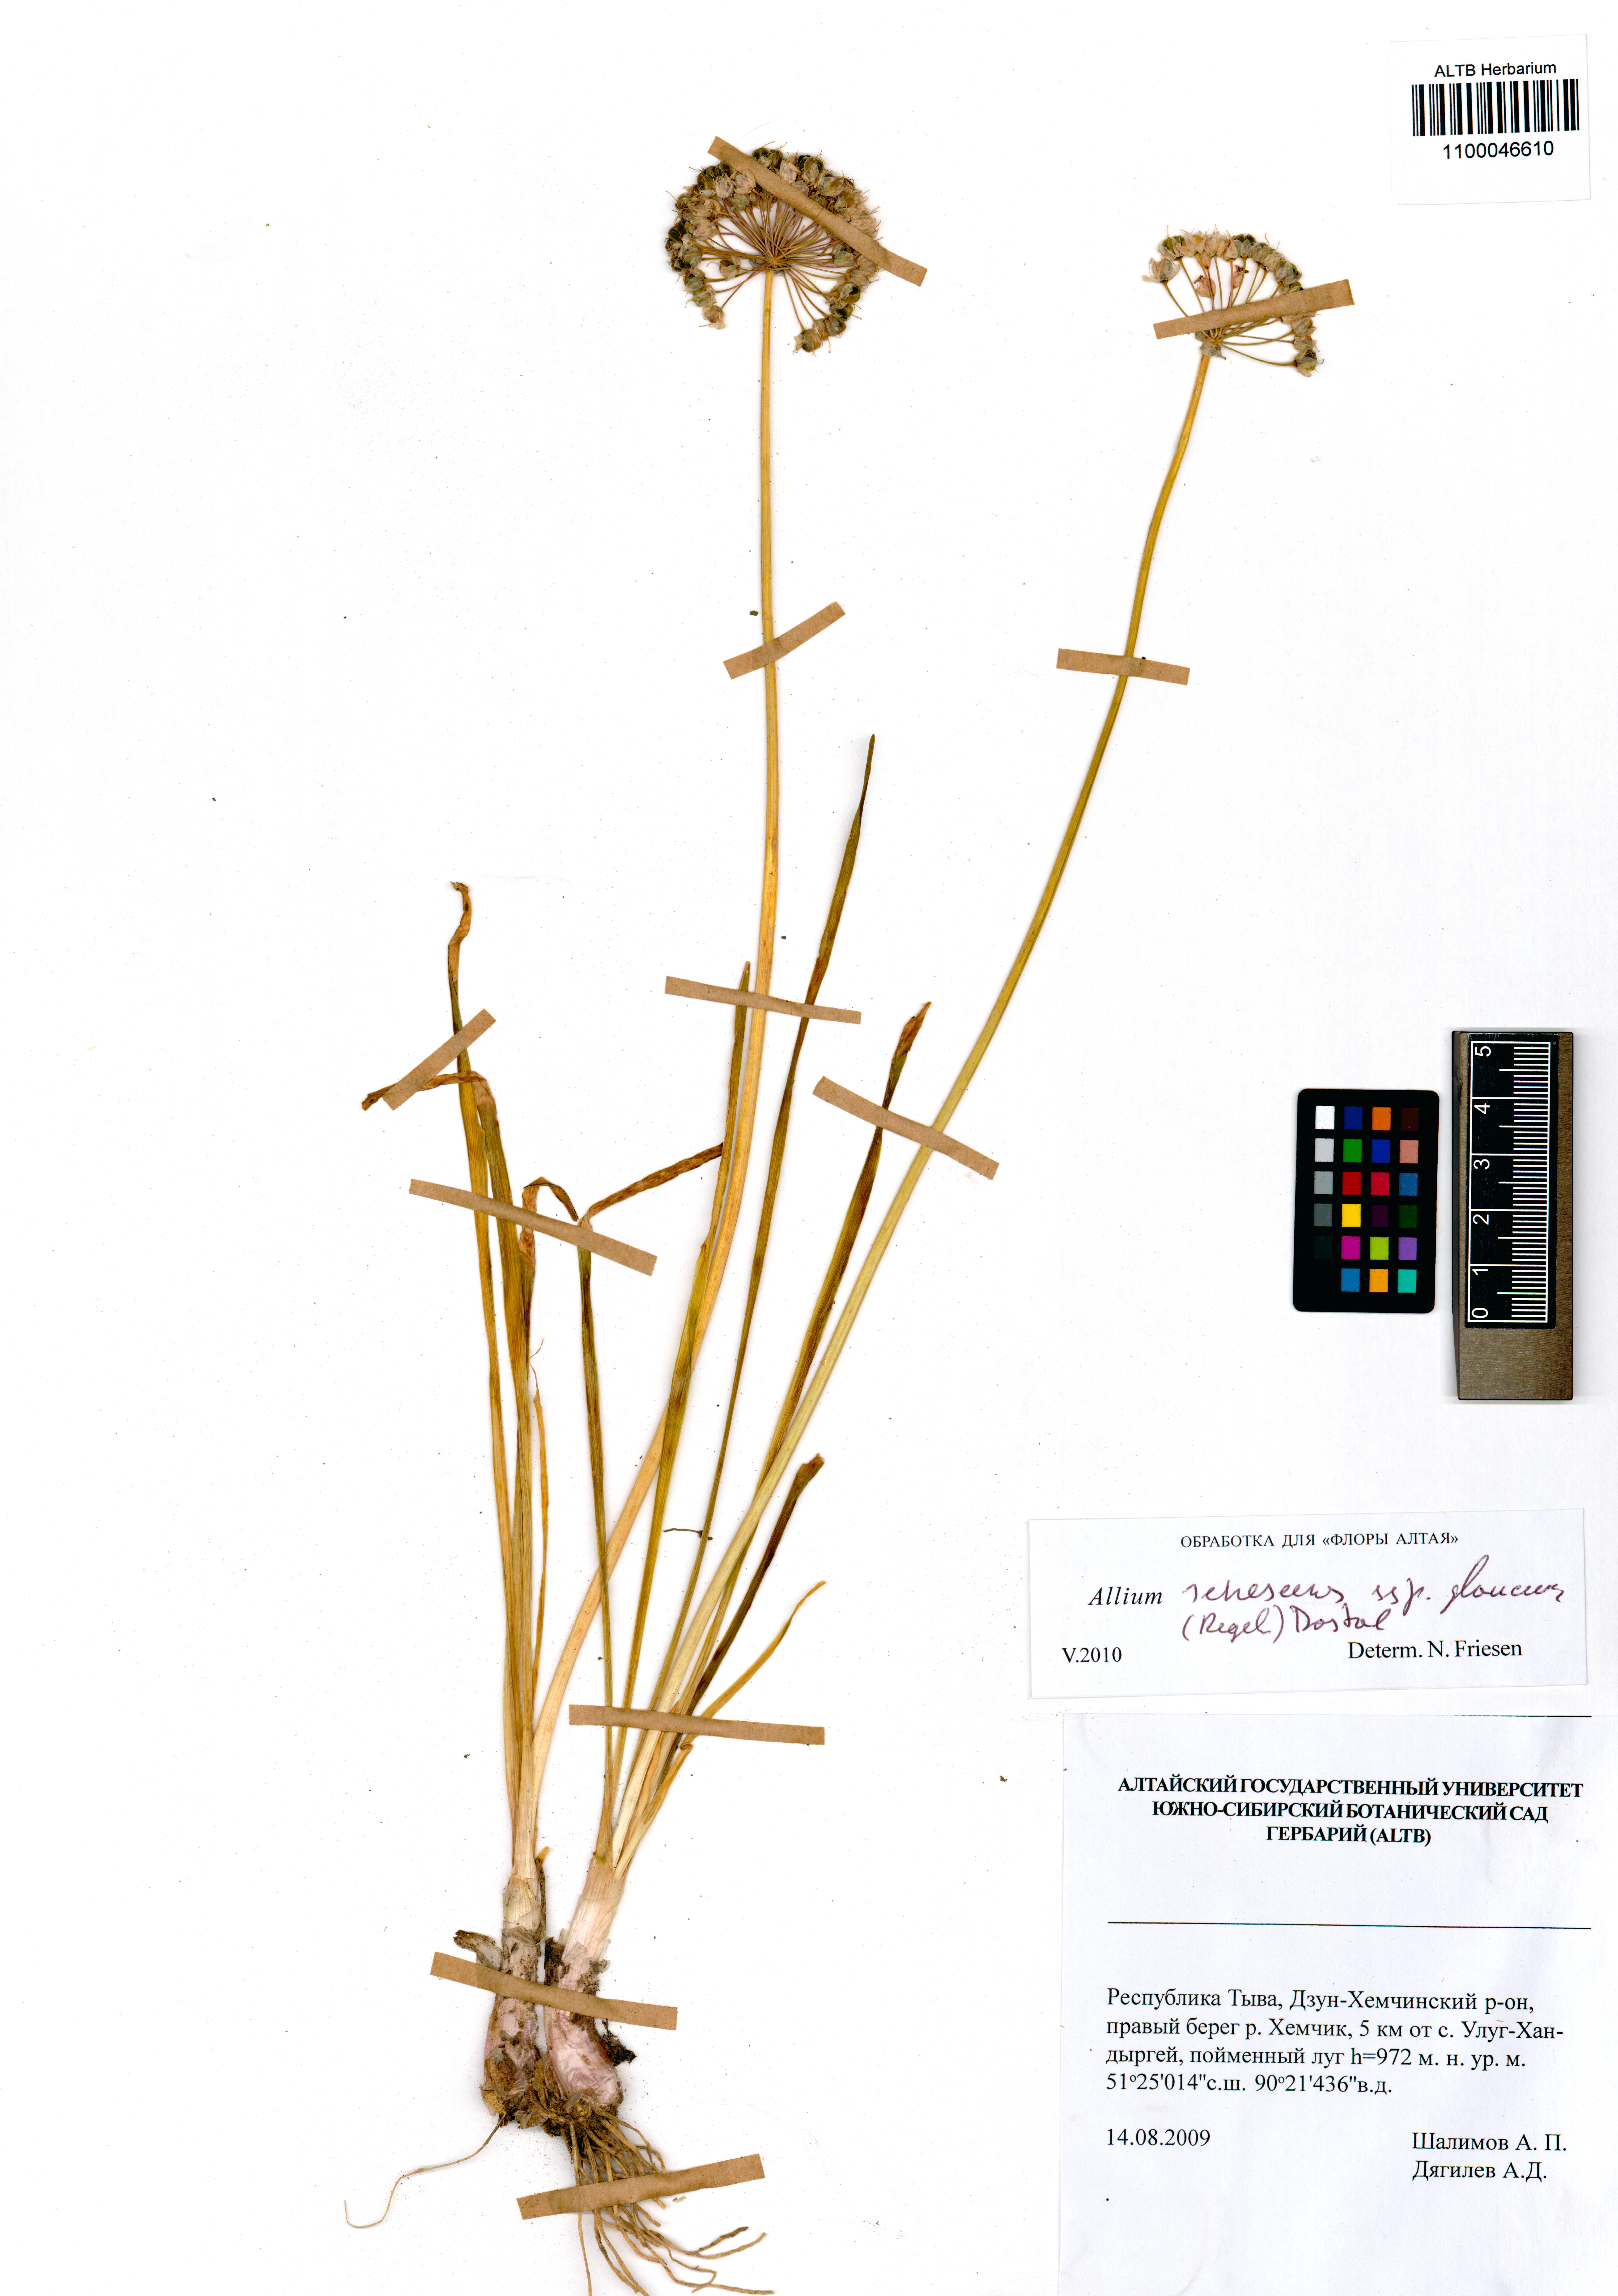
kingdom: Plantae
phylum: Tracheophyta
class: Liliopsida
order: Asparagales
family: Amaryllidaceae
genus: Allium
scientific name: Allium senescens
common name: German garlic
